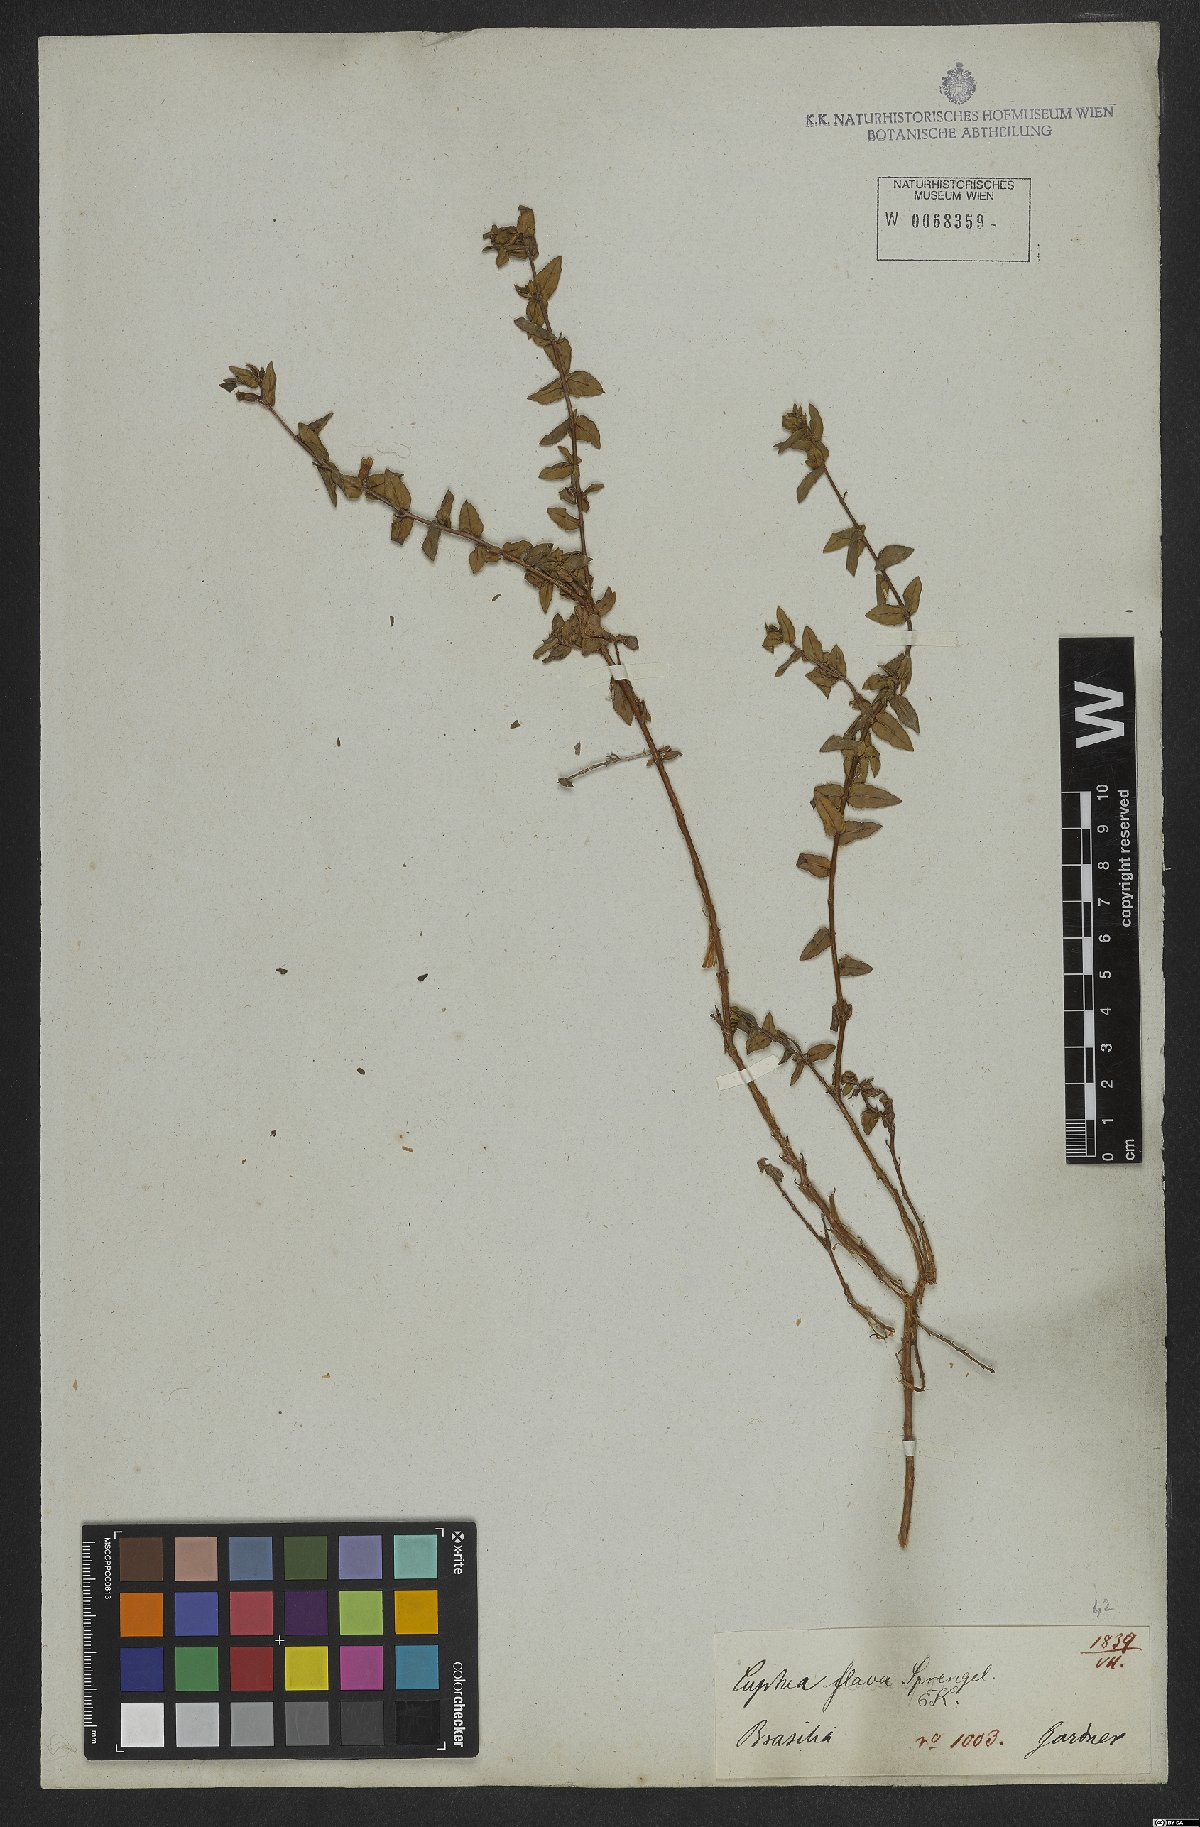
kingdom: Plantae
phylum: Tracheophyta
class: Magnoliopsida
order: Myrtales
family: Lythraceae
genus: Cuphea
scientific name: Cuphea flava
